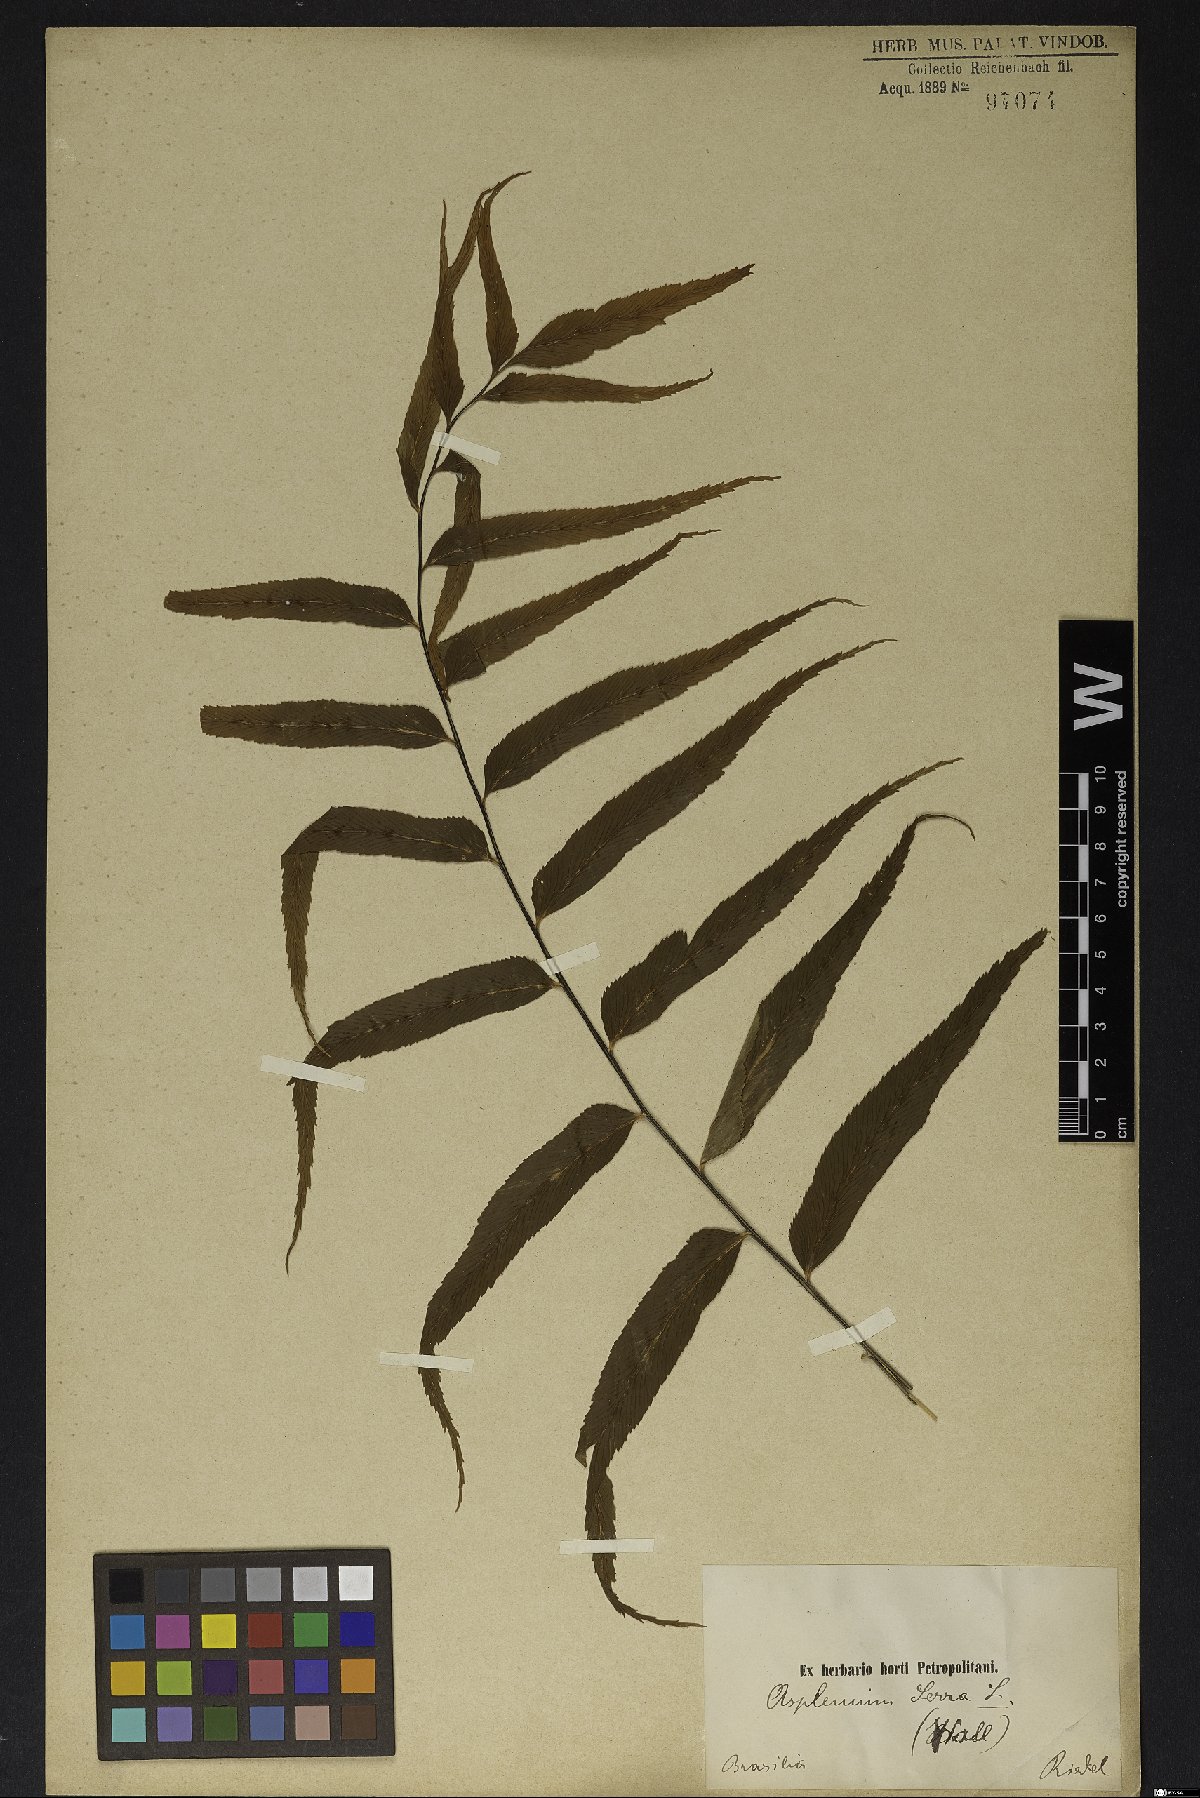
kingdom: Plantae
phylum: Tracheophyta
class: Polypodiopsida
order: Polypodiales
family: Aspleniaceae
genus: Asplenium
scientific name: Asplenium serra
